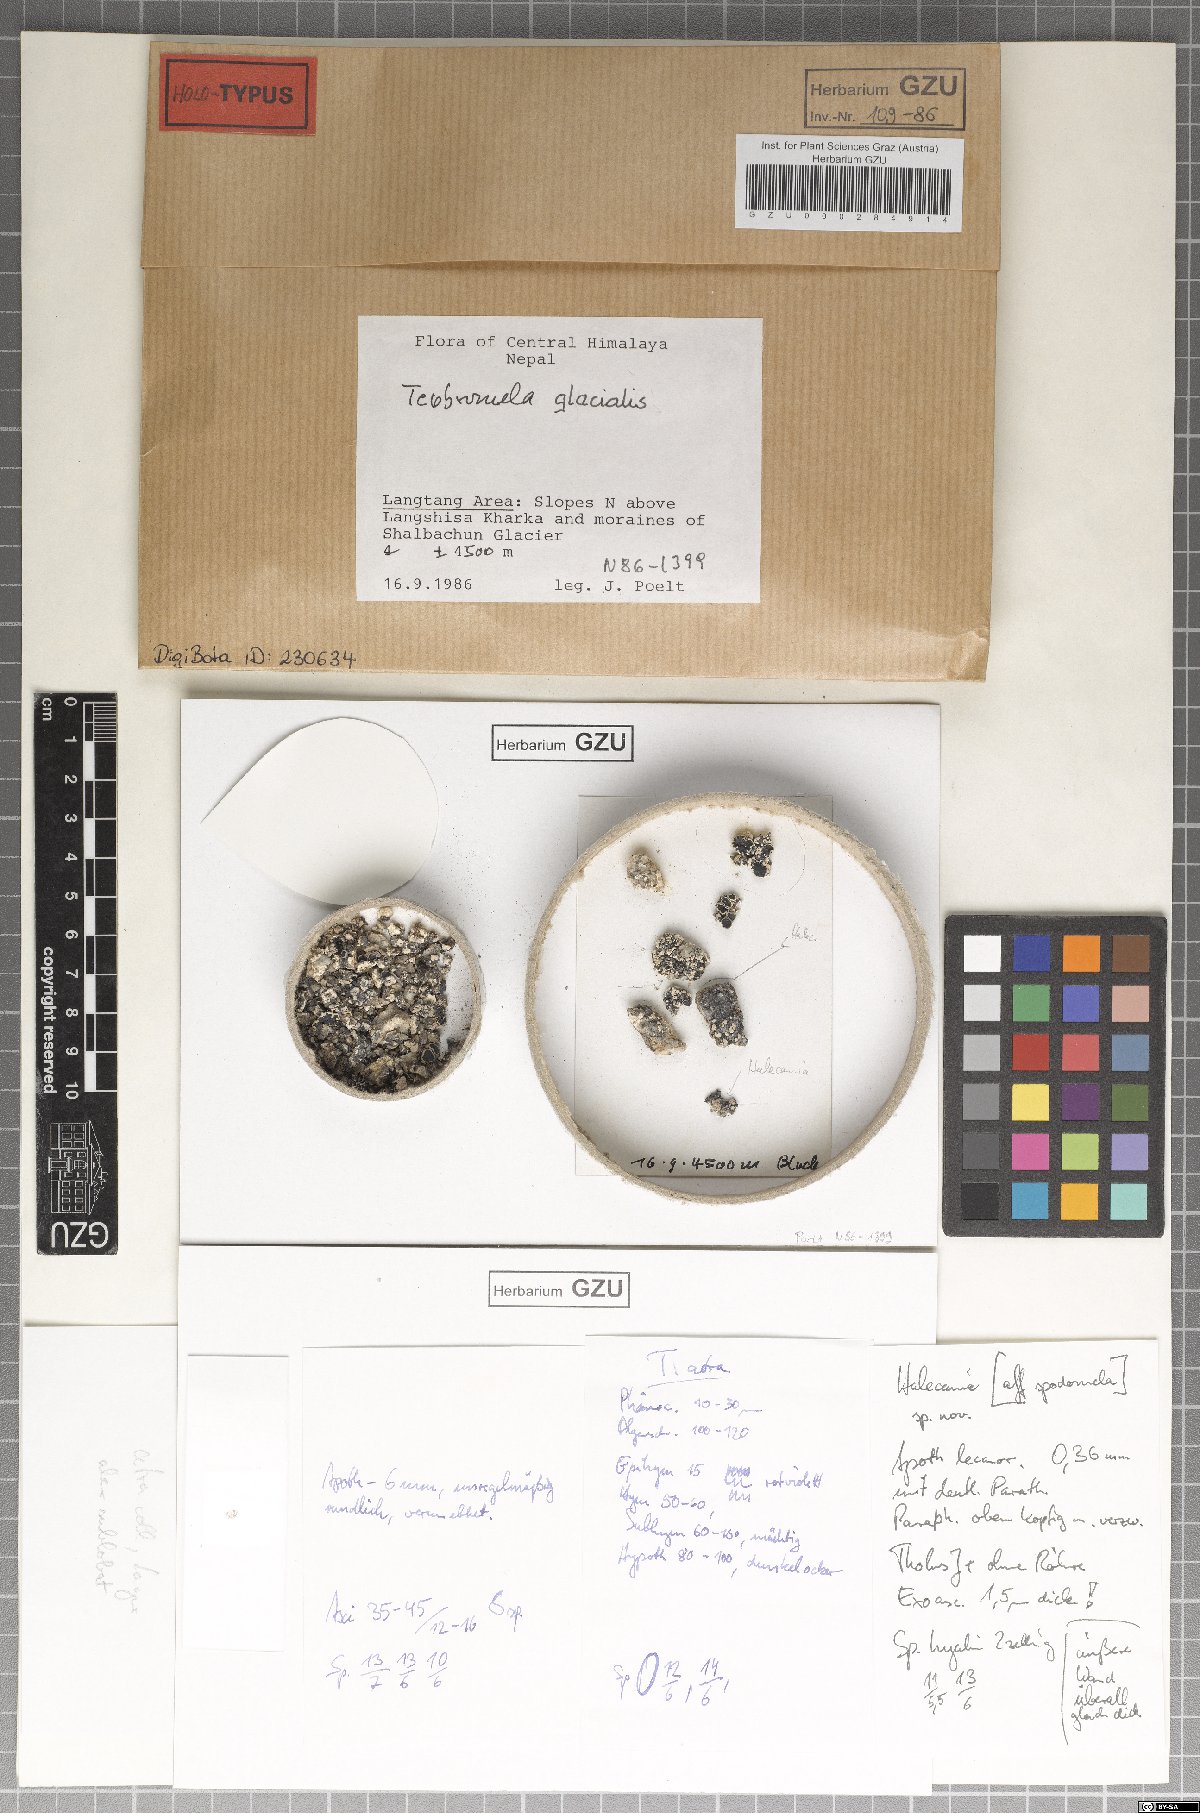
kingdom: Fungi
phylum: Ascomycota
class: Lecanoromycetes
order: Lecanorales
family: Tephromelataceae
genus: Tephromela
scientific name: Tephromela glacialis
